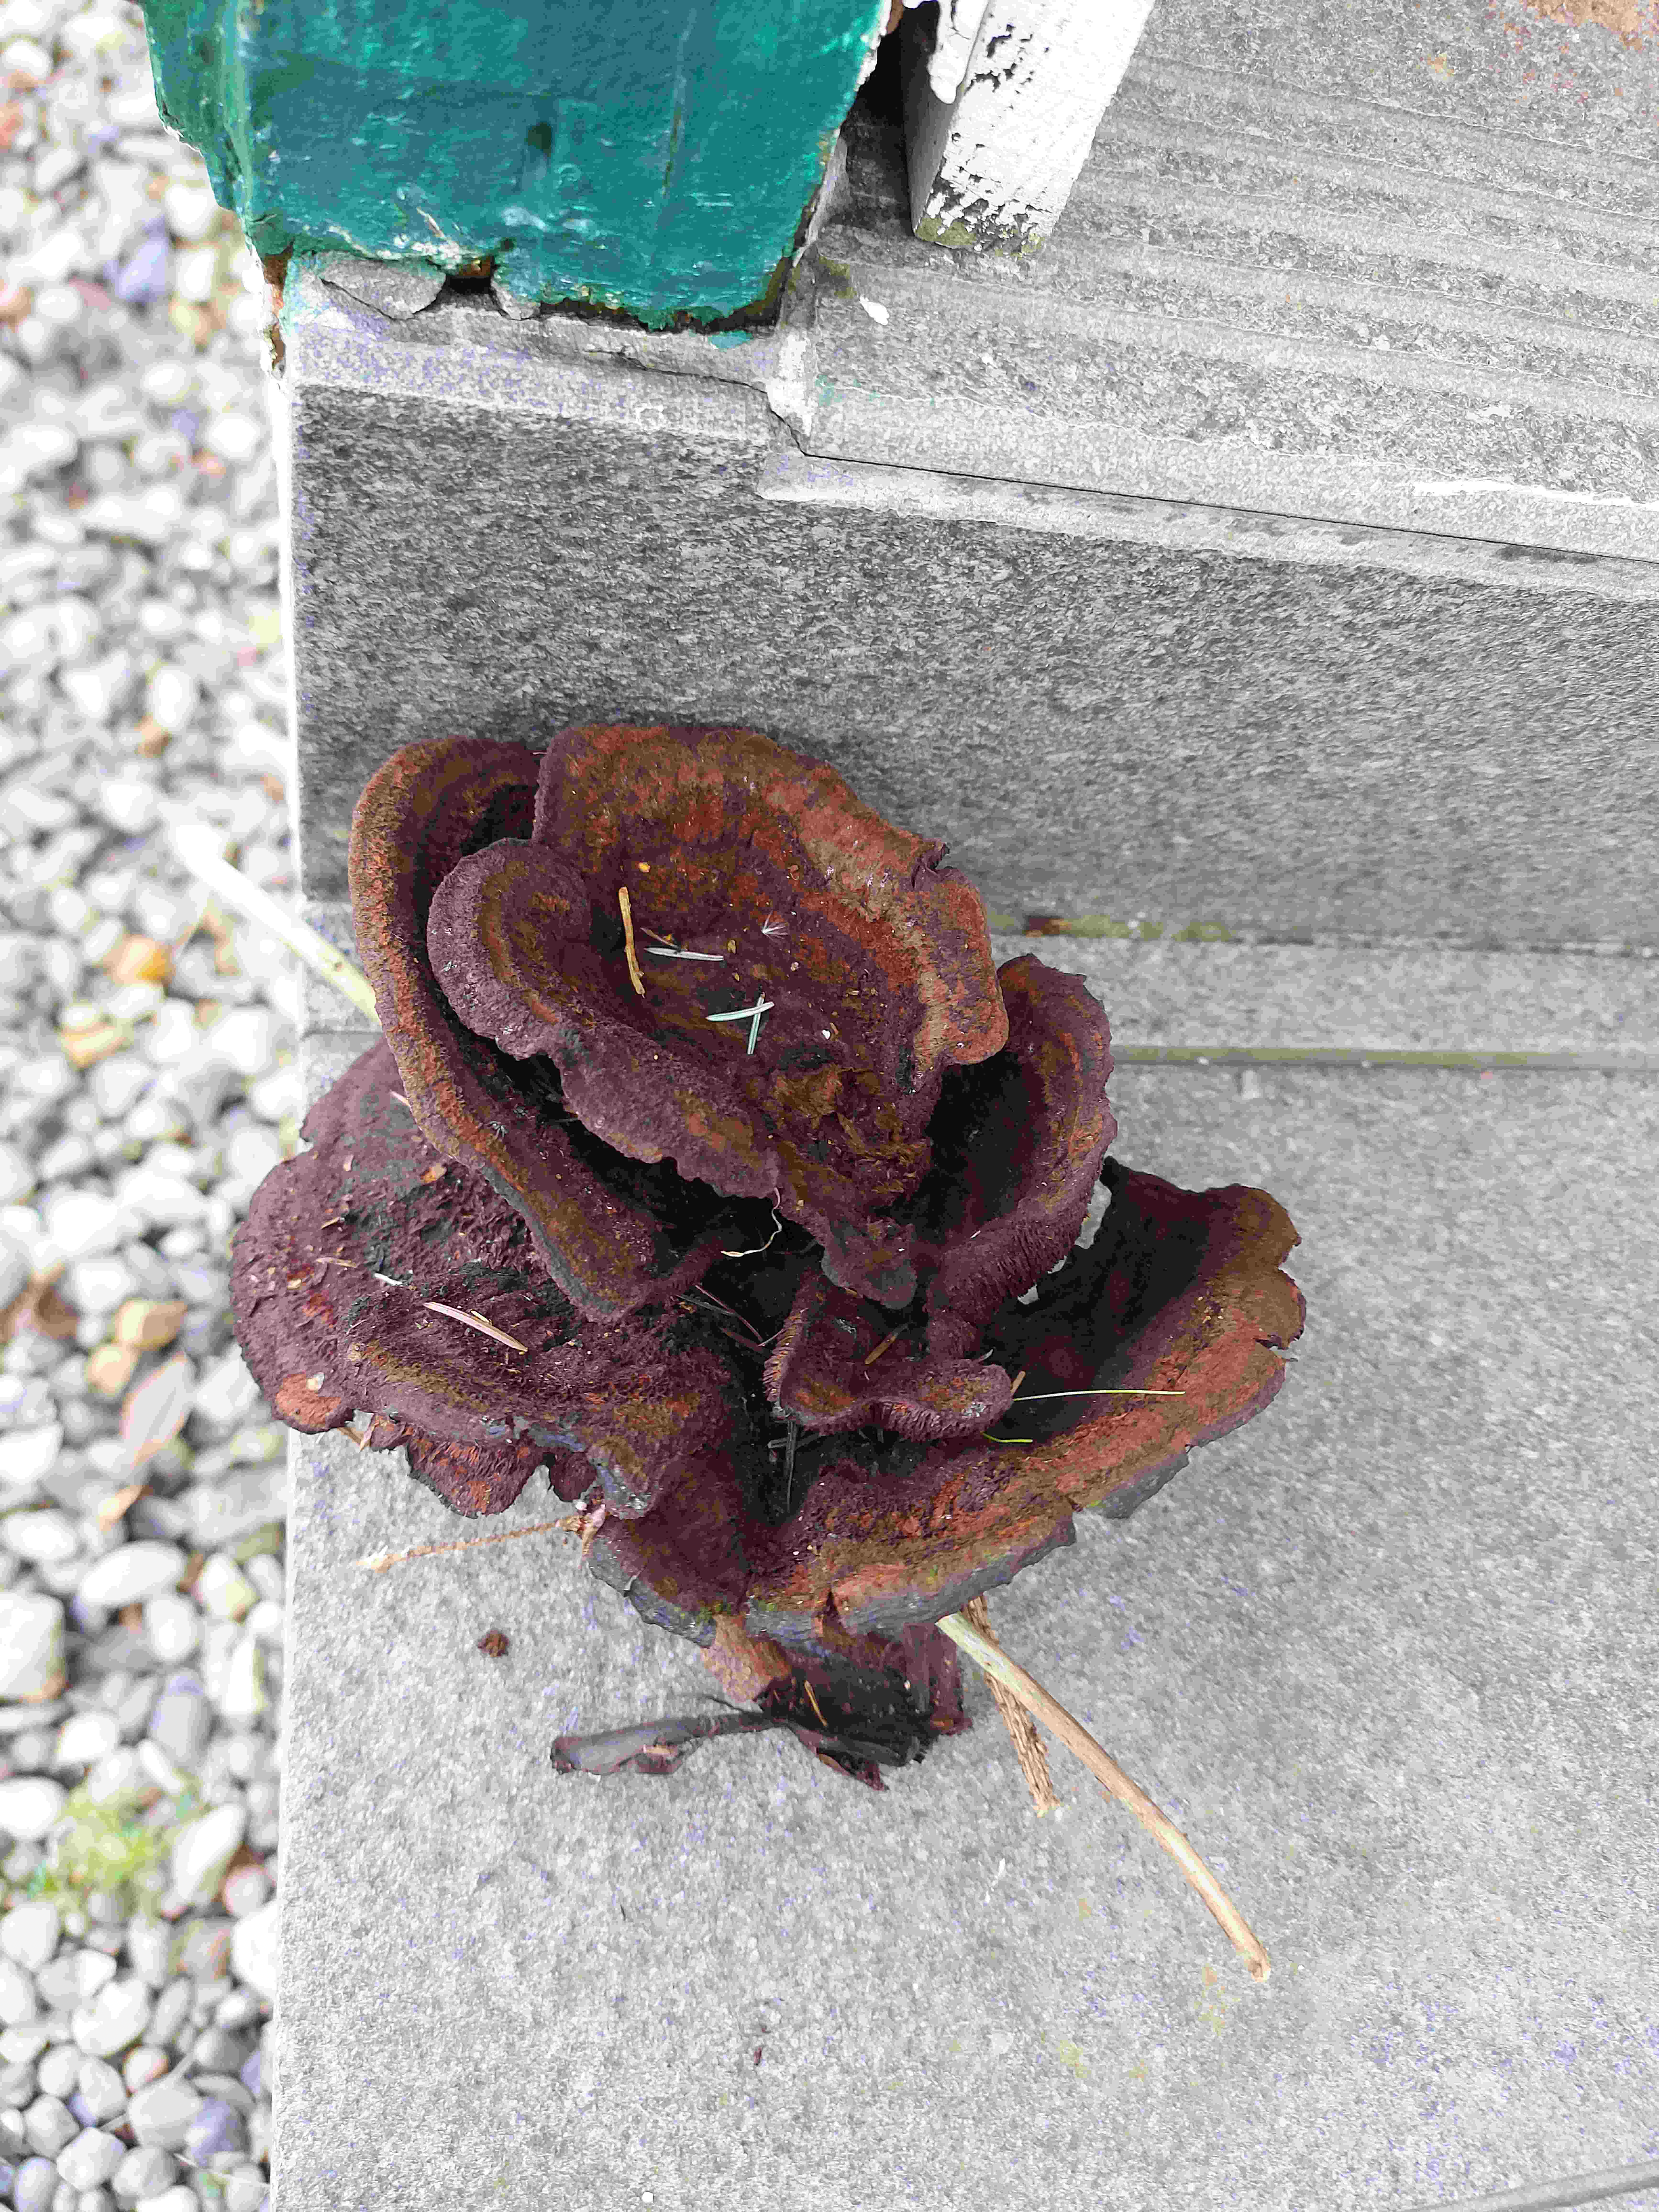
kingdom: Fungi
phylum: Basidiomycota
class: Agaricomycetes
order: Polyporales
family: Laetiporaceae
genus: Phaeolus
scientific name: Phaeolus schweinitzii
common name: brunporesvamp
